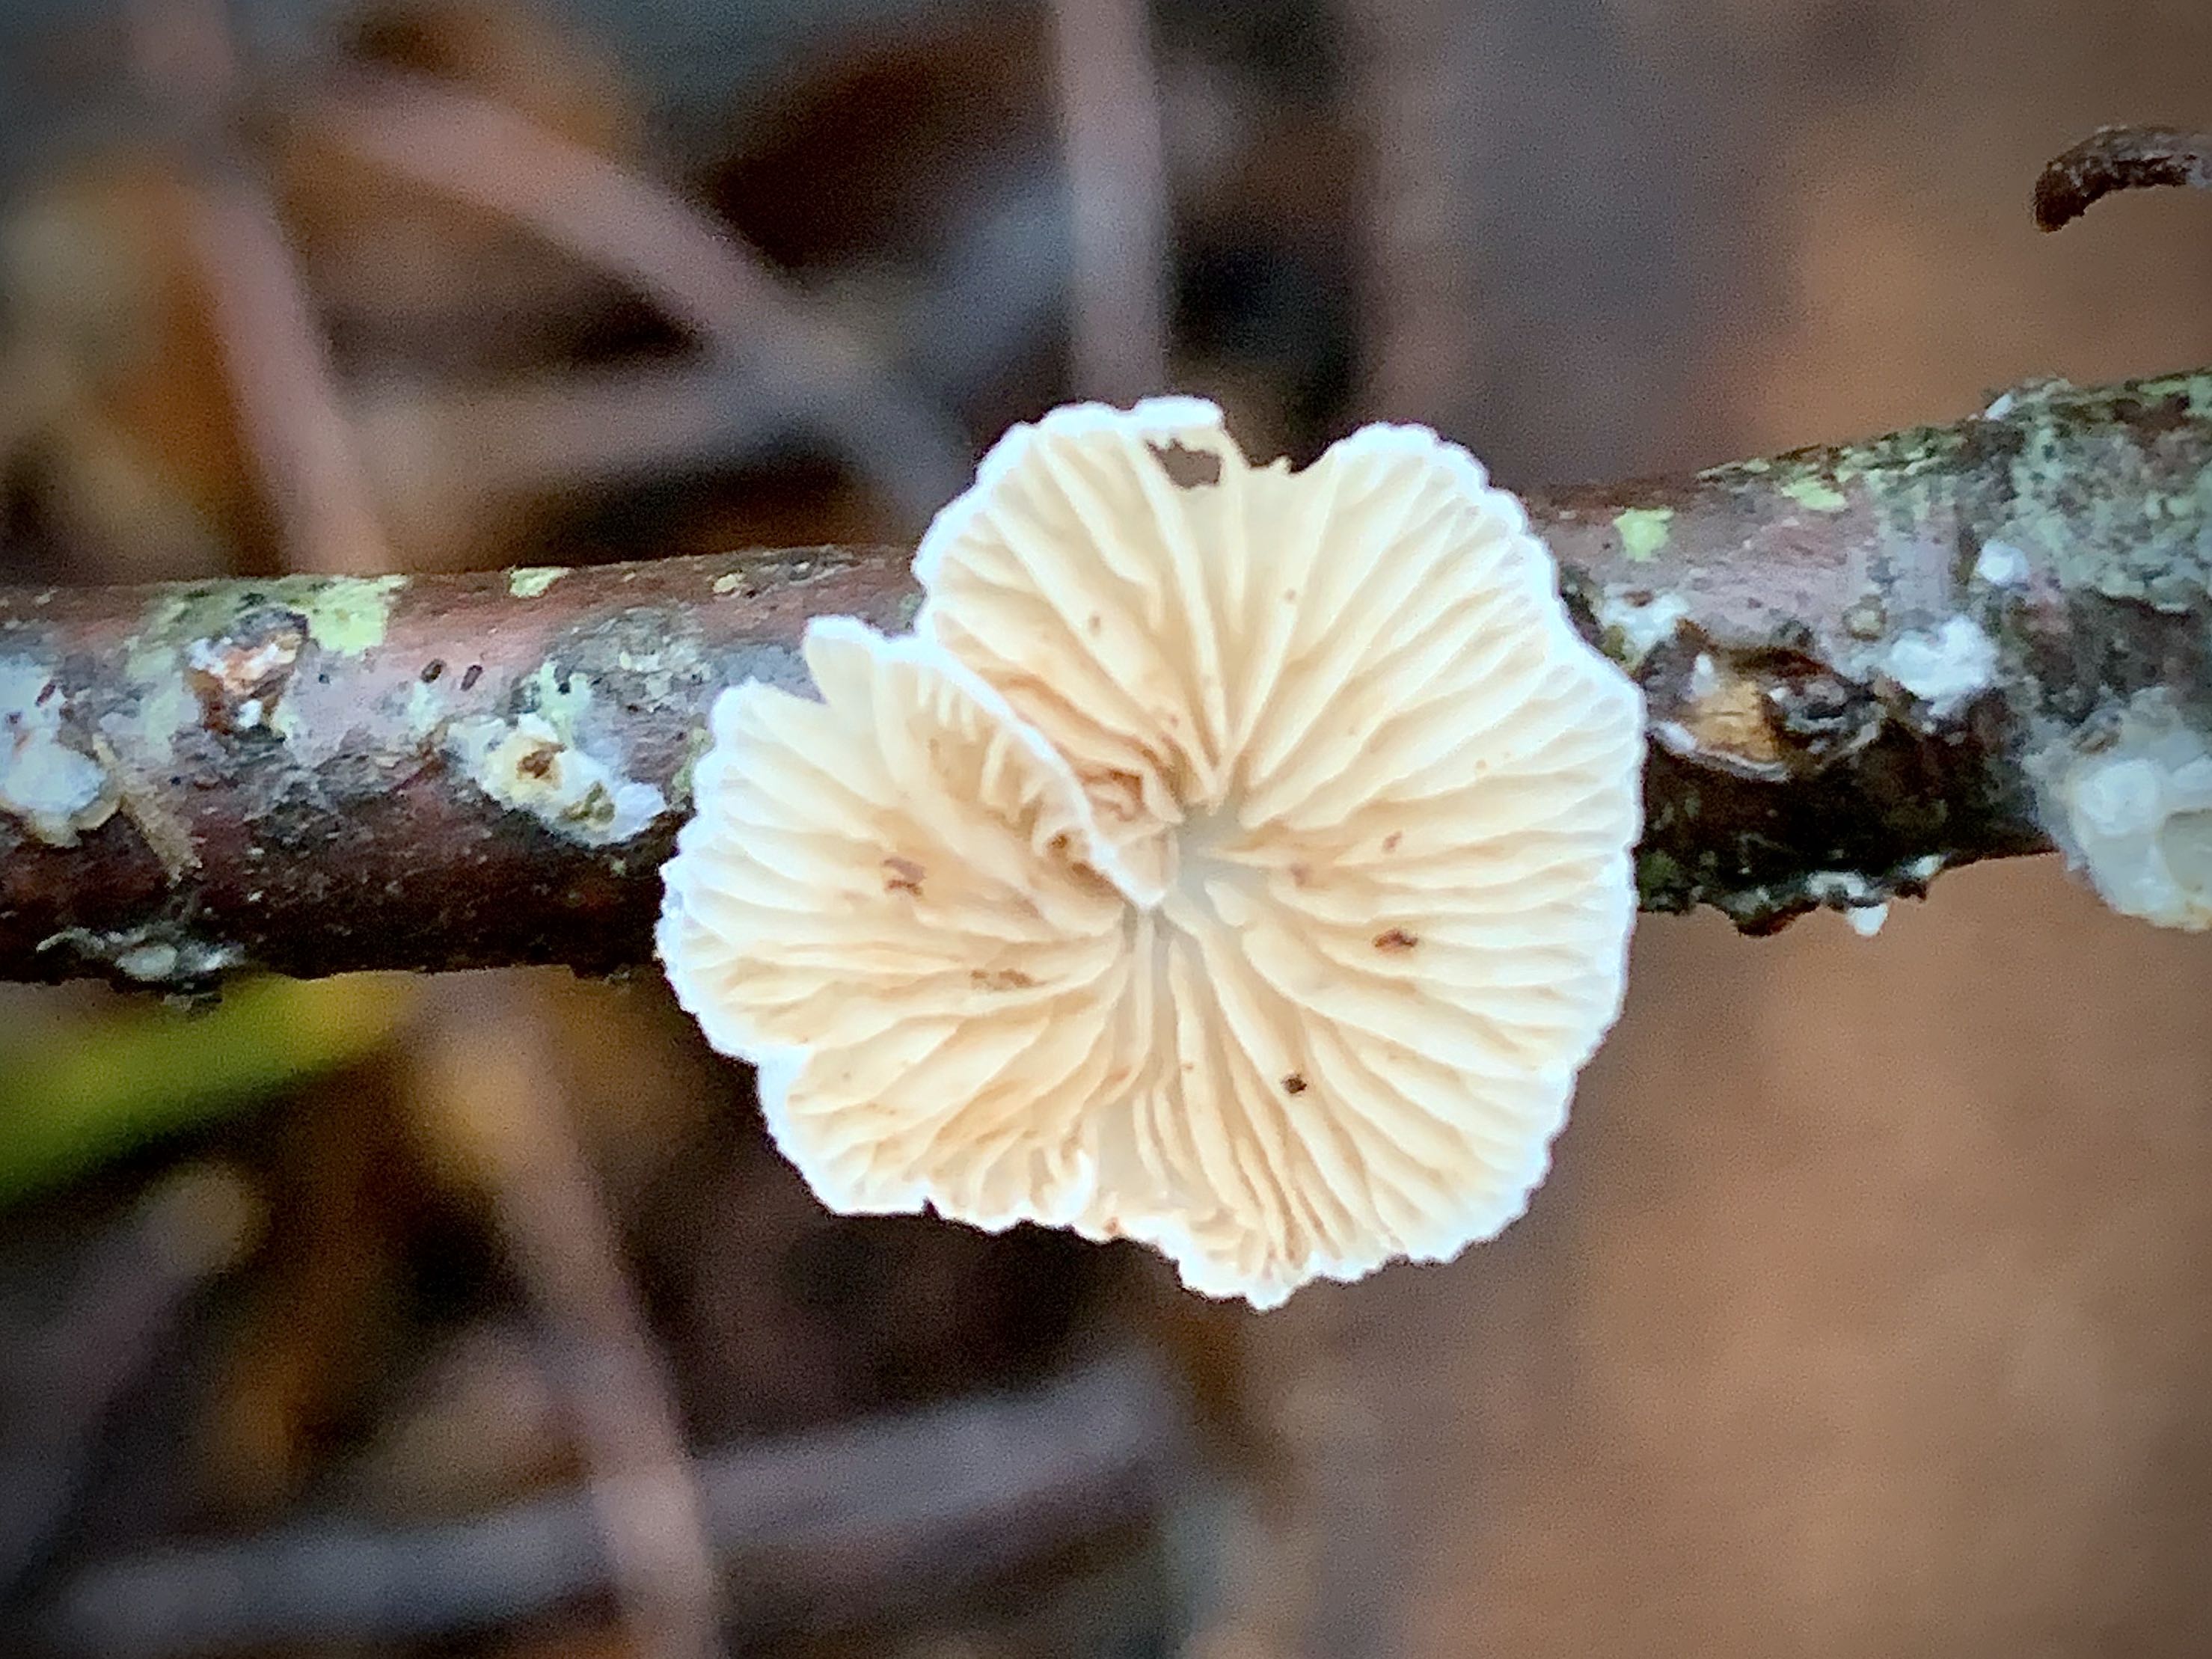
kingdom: Fungi
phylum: Basidiomycota
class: Agaricomycetes
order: Agaricales
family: Crepidotaceae
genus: Crepidotus
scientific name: Crepidotus
